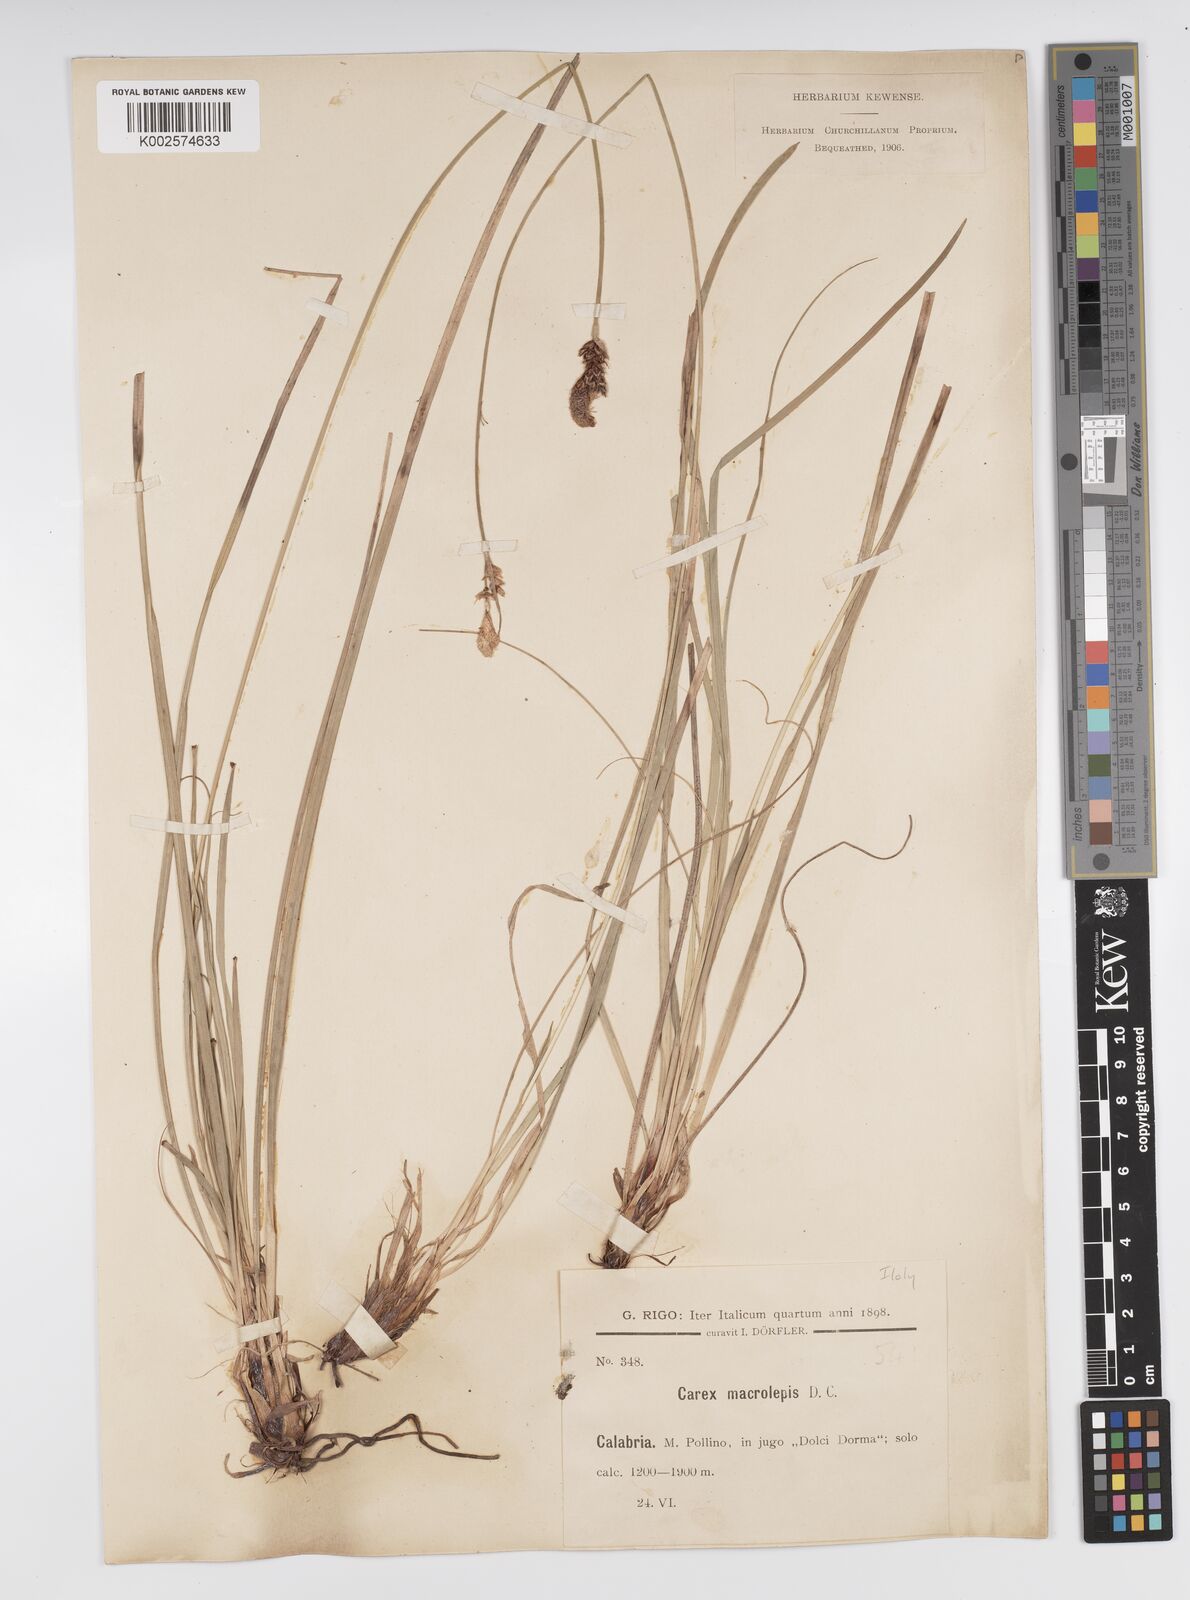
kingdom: Plantae
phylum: Tracheophyta
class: Liliopsida
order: Poales
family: Cyperaceae
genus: Carex
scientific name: Carex macrolepis
